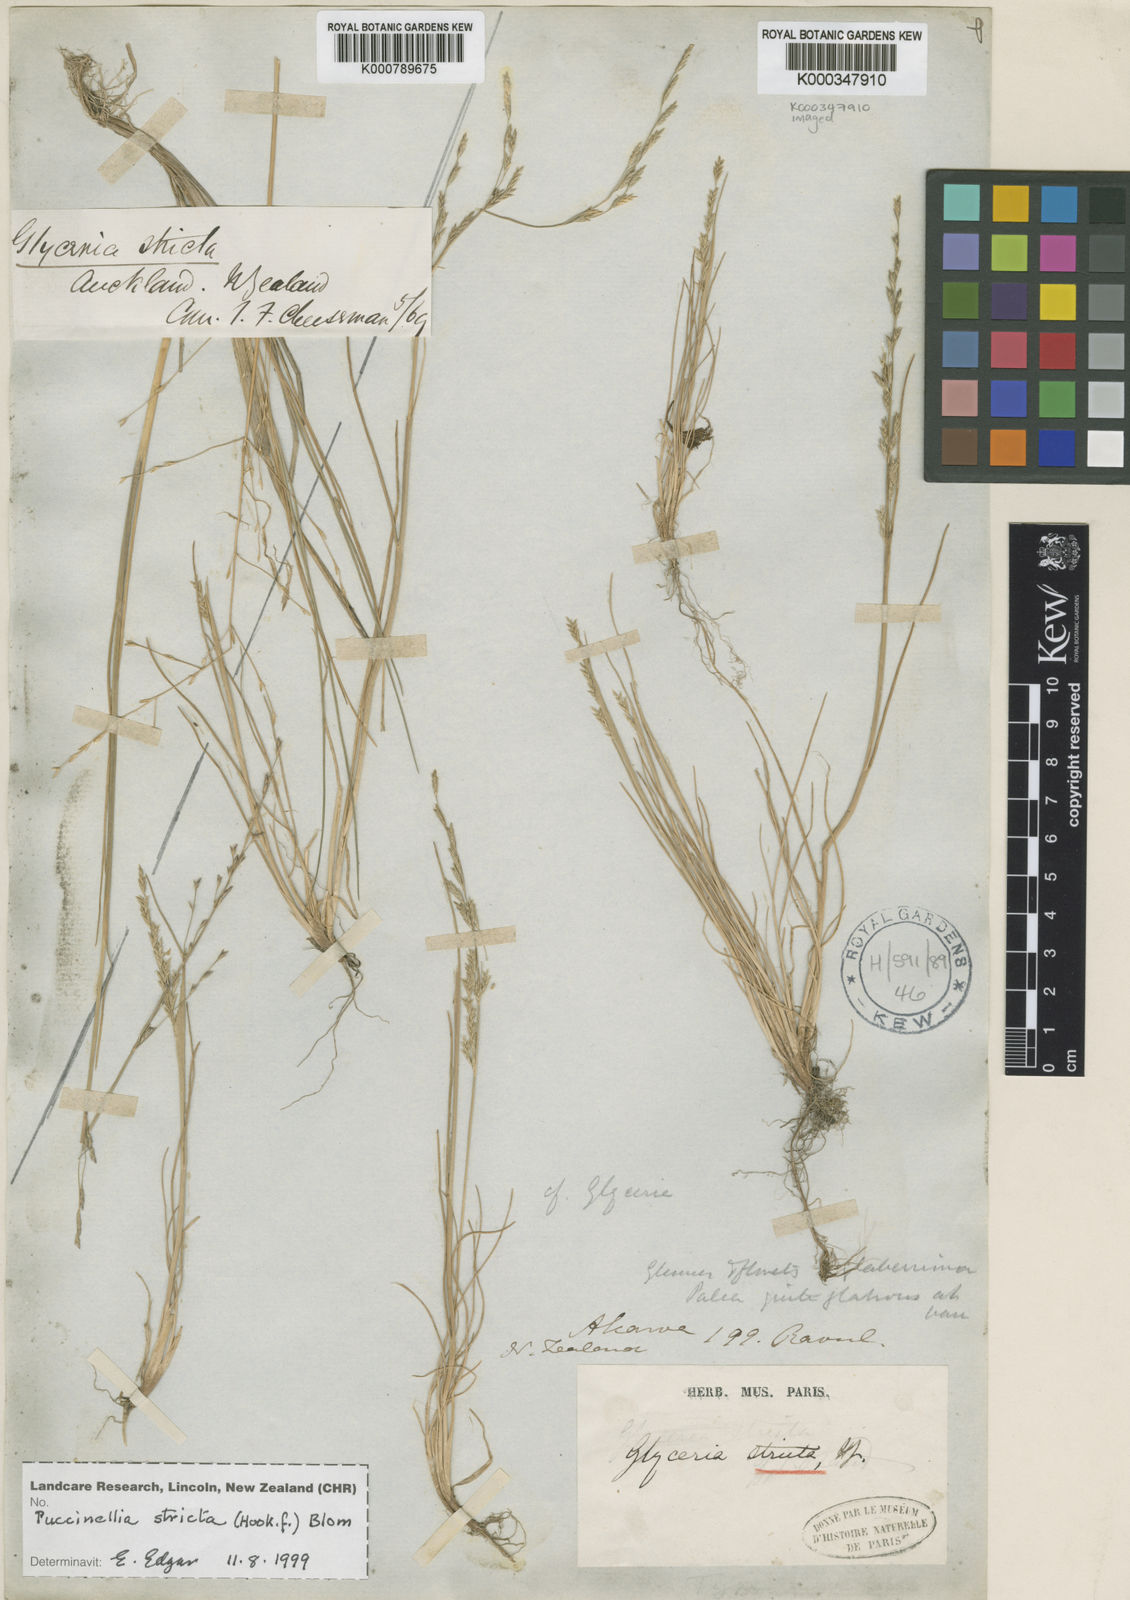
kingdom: Plantae
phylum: Tracheophyta
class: Liliopsida
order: Poales
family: Poaceae
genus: Puccinellia
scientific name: Puccinellia stricta
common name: Australian saltmarsh grass
